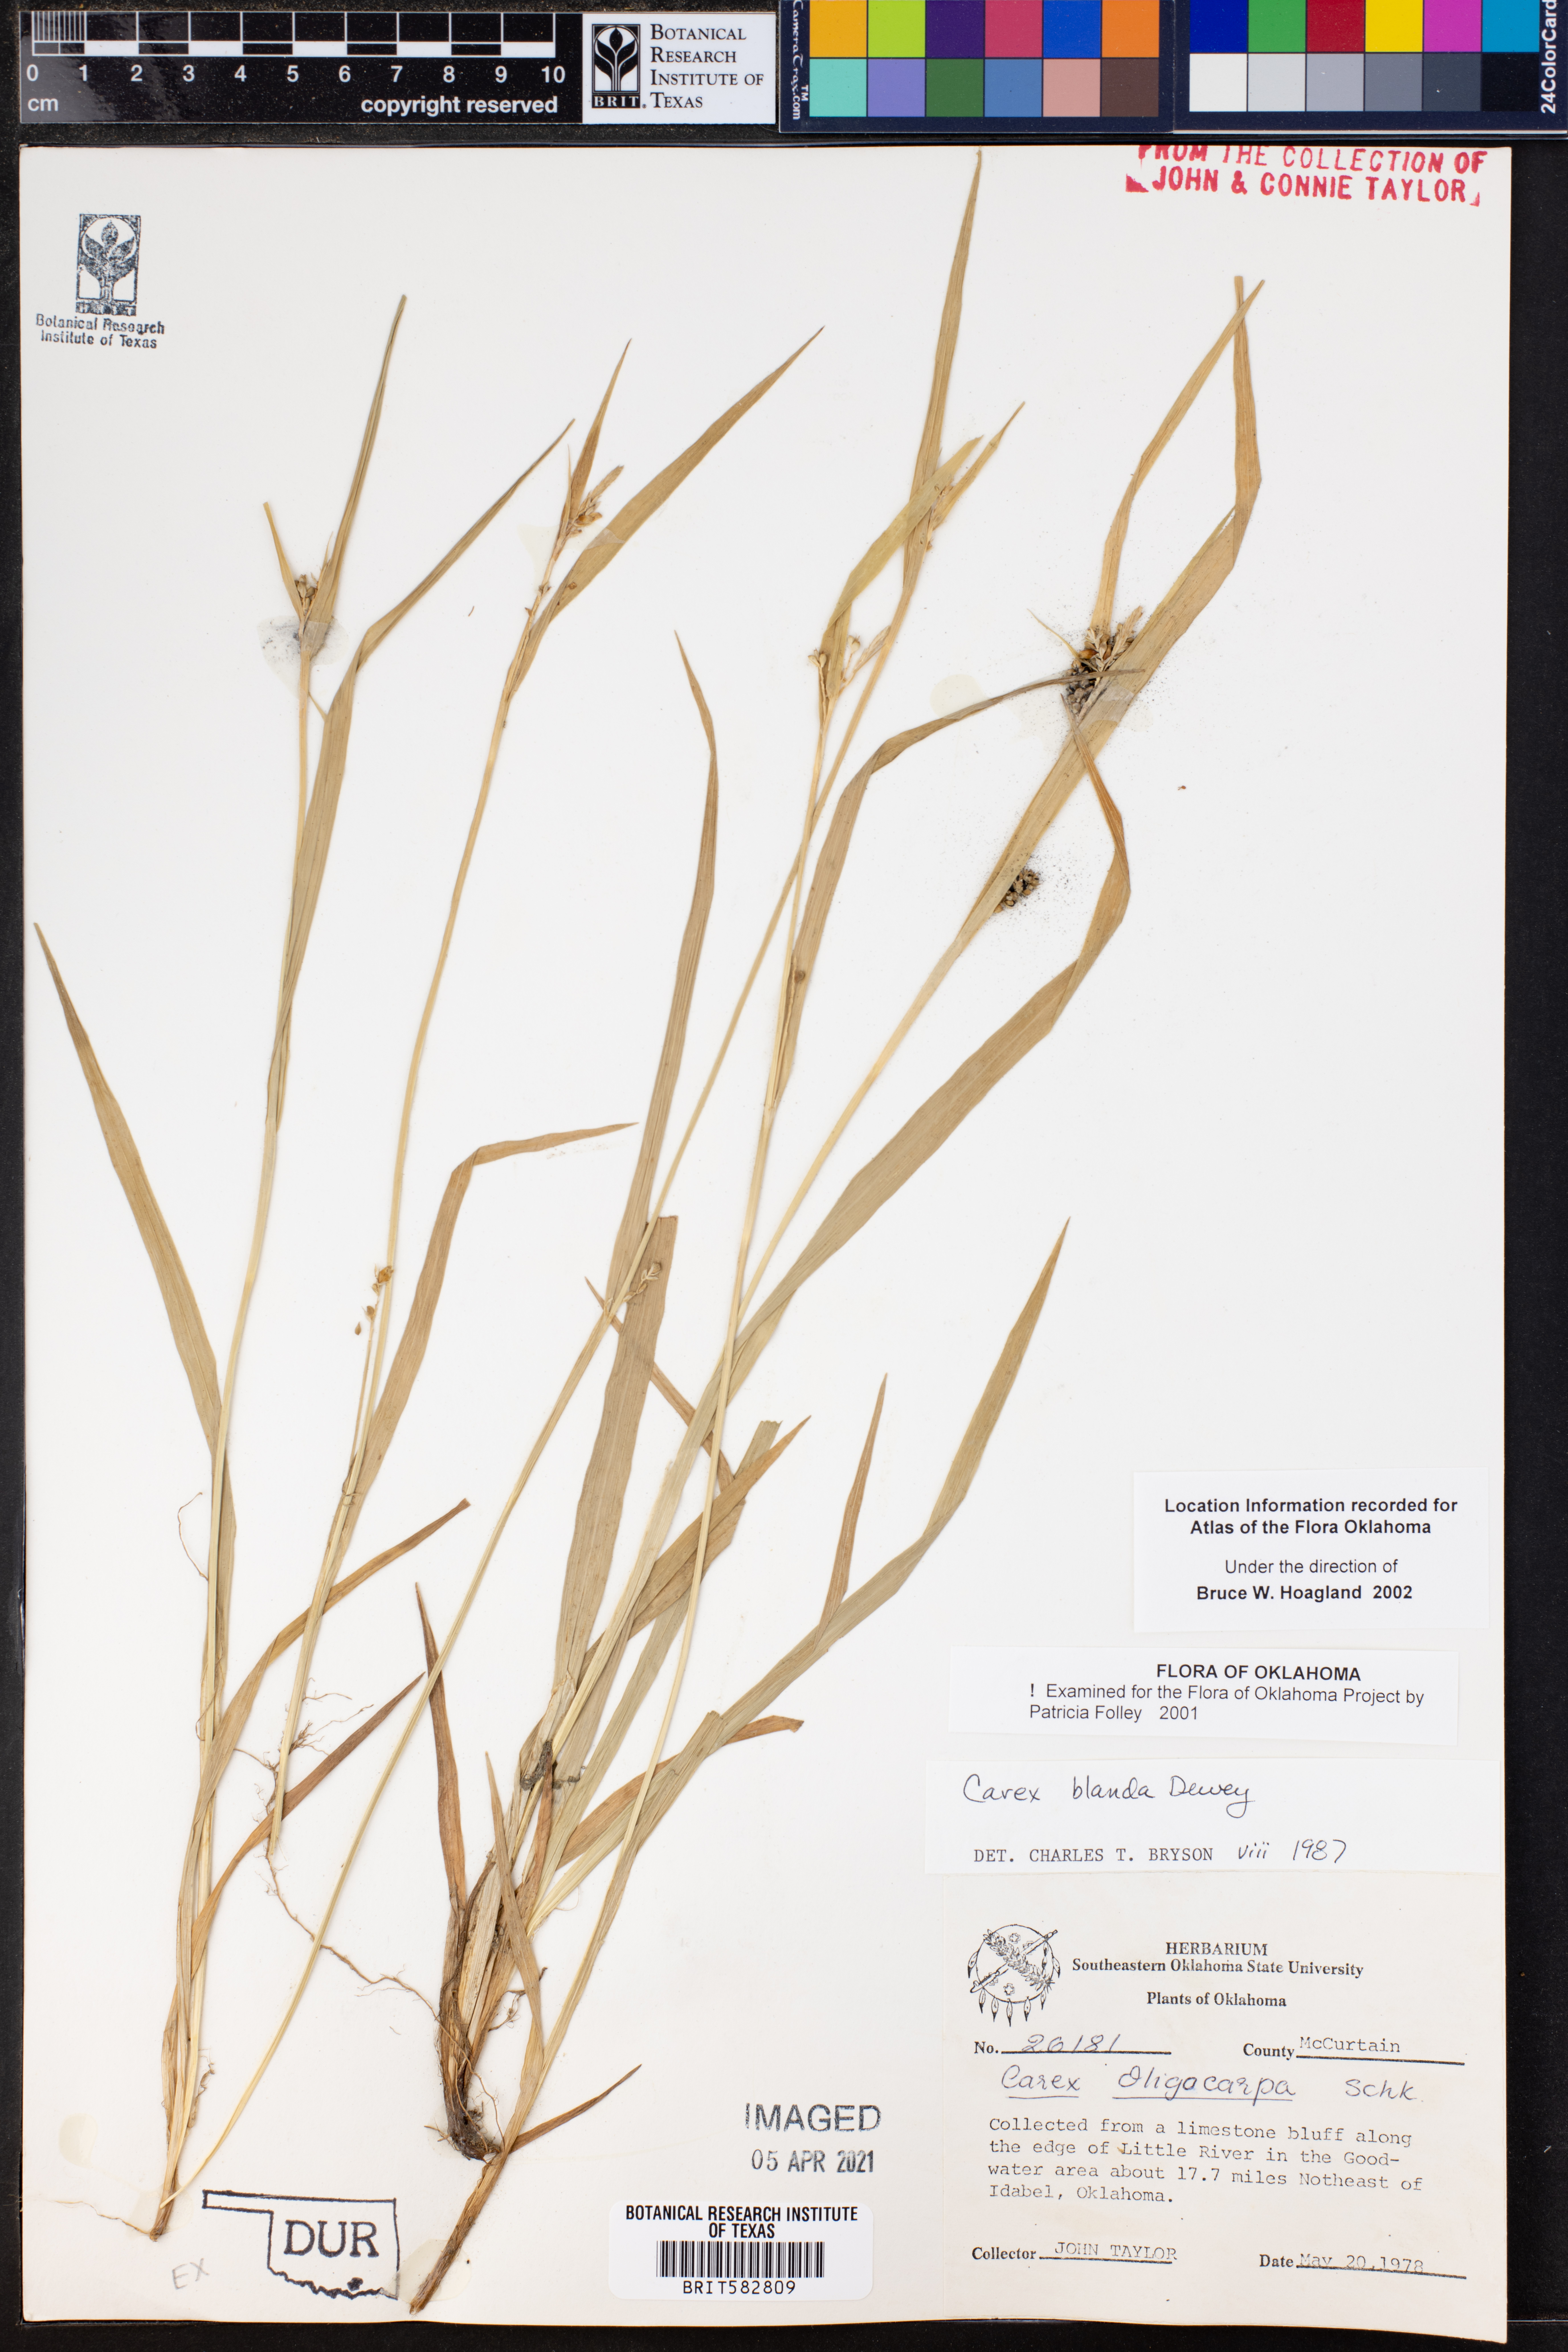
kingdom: Plantae
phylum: Tracheophyta
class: Liliopsida
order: Poales
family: Cyperaceae
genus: Carex
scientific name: Carex blanda
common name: Bland sedge
